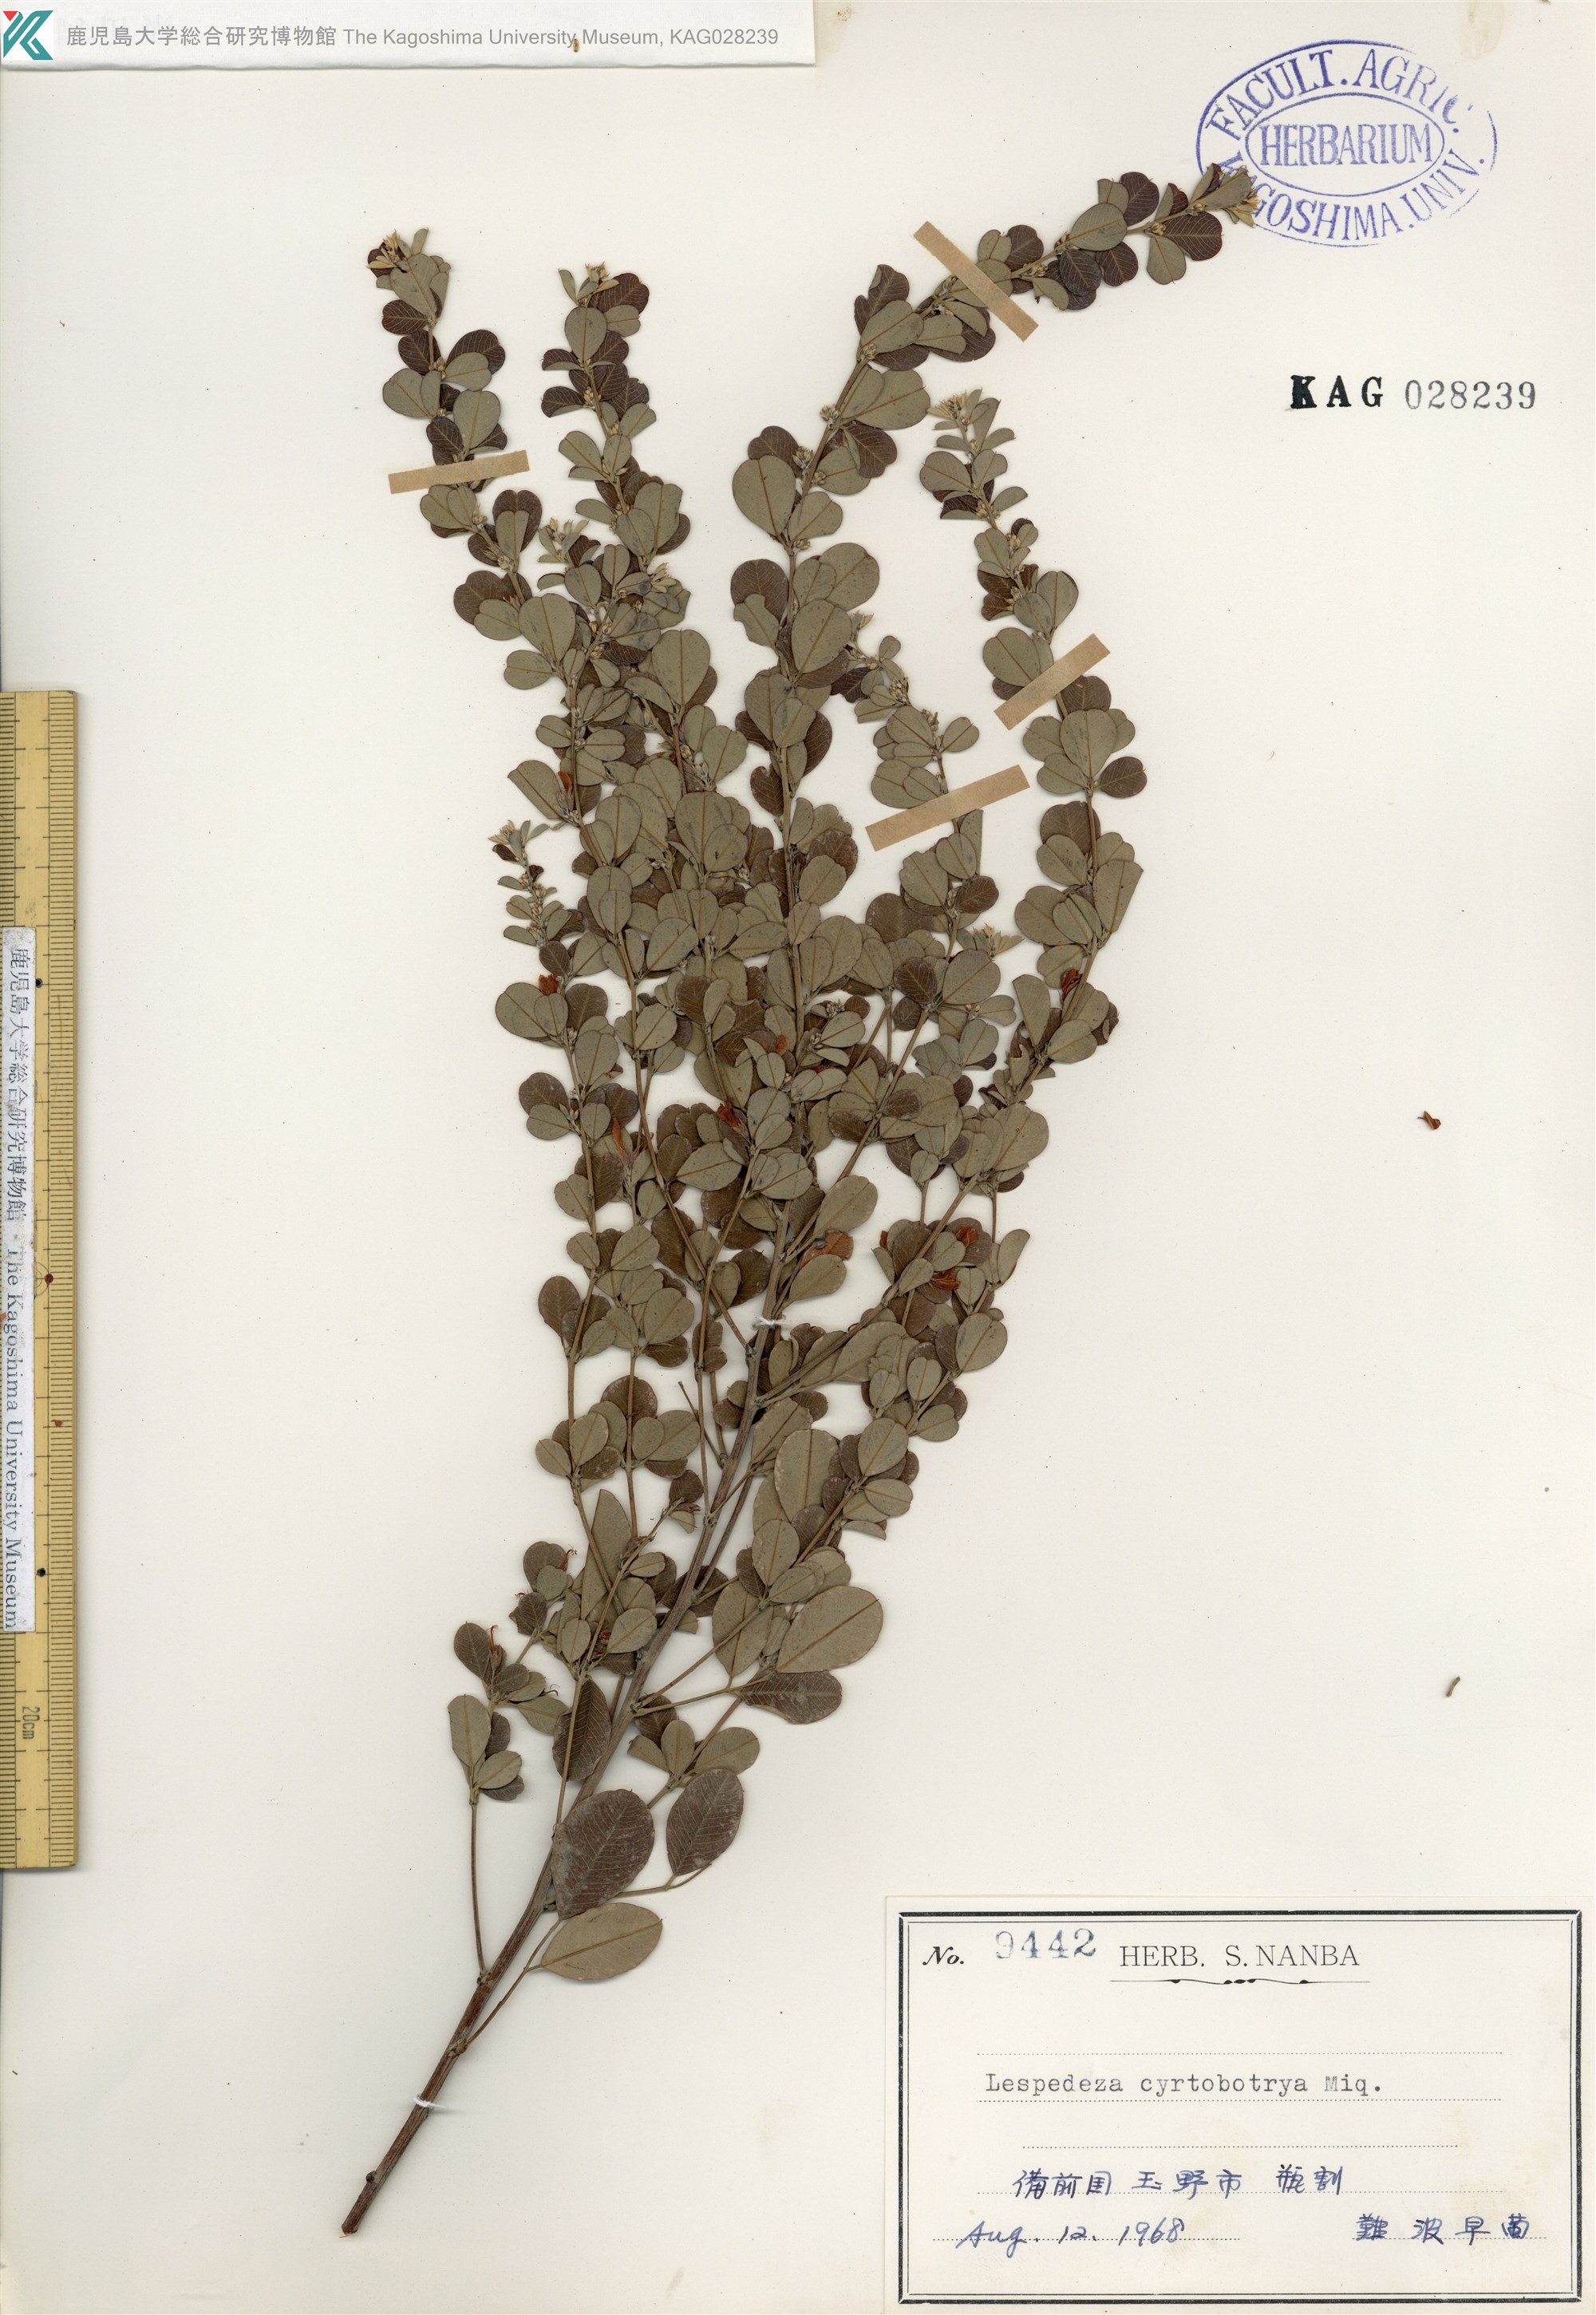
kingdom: Plantae
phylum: Tracheophyta
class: Magnoliopsida
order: Fabales
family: Fabaceae
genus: Lespedeza
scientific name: Lespedeza cyrtobotrya
